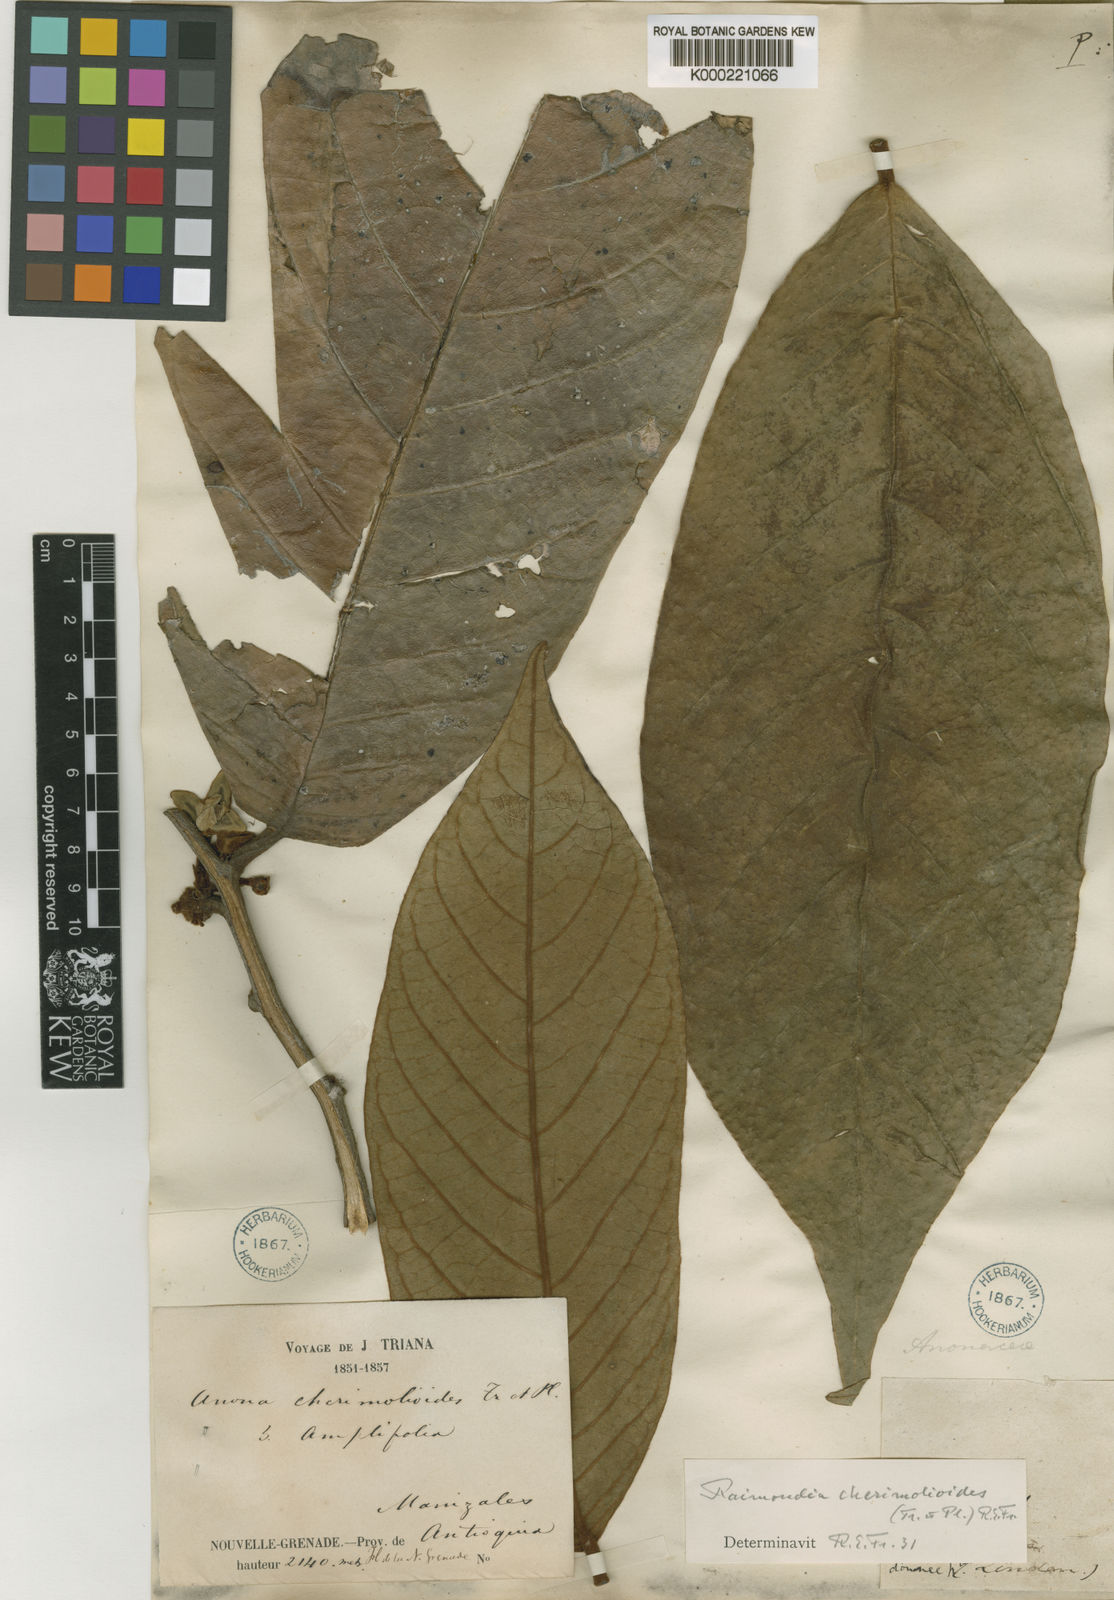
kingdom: Plantae
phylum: Tracheophyta
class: Magnoliopsida
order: Magnoliales
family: Annonaceae
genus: Annona
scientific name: Annona cherimolioides
